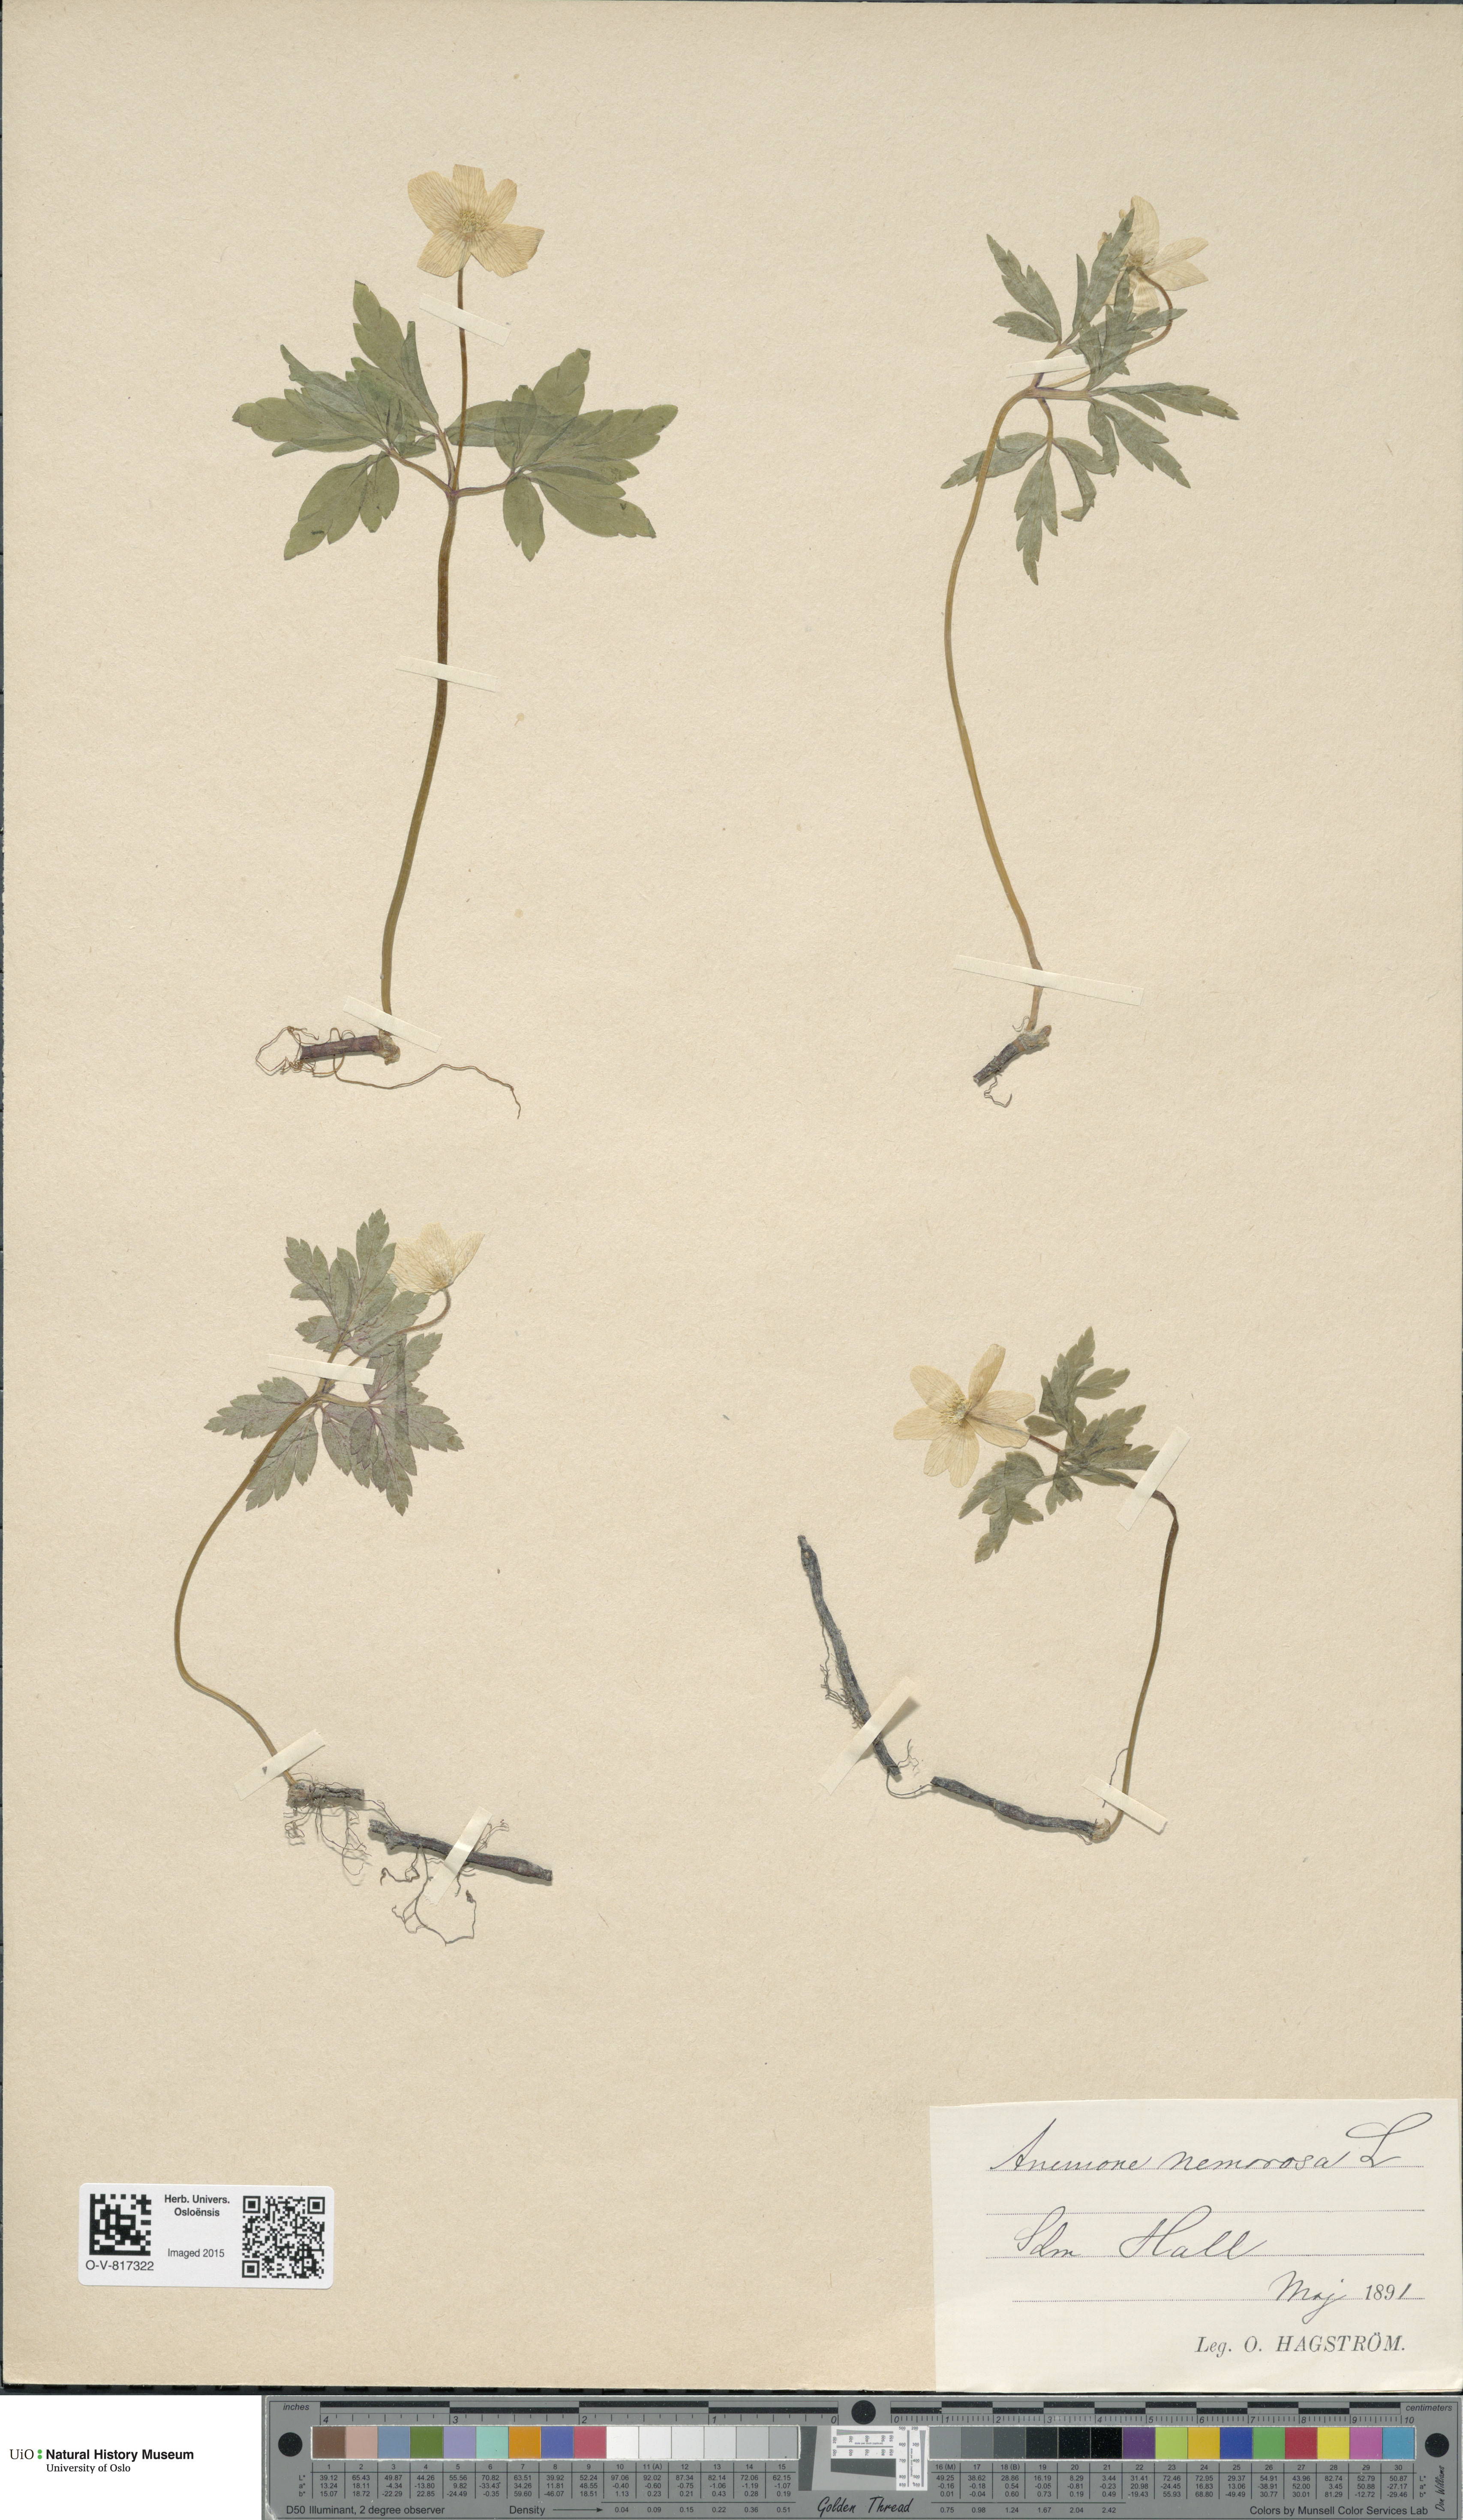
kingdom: Plantae
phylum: Tracheophyta
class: Magnoliopsida
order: Ranunculales
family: Ranunculaceae
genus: Anemone
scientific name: Anemone nemorosa
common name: Wood anemone
